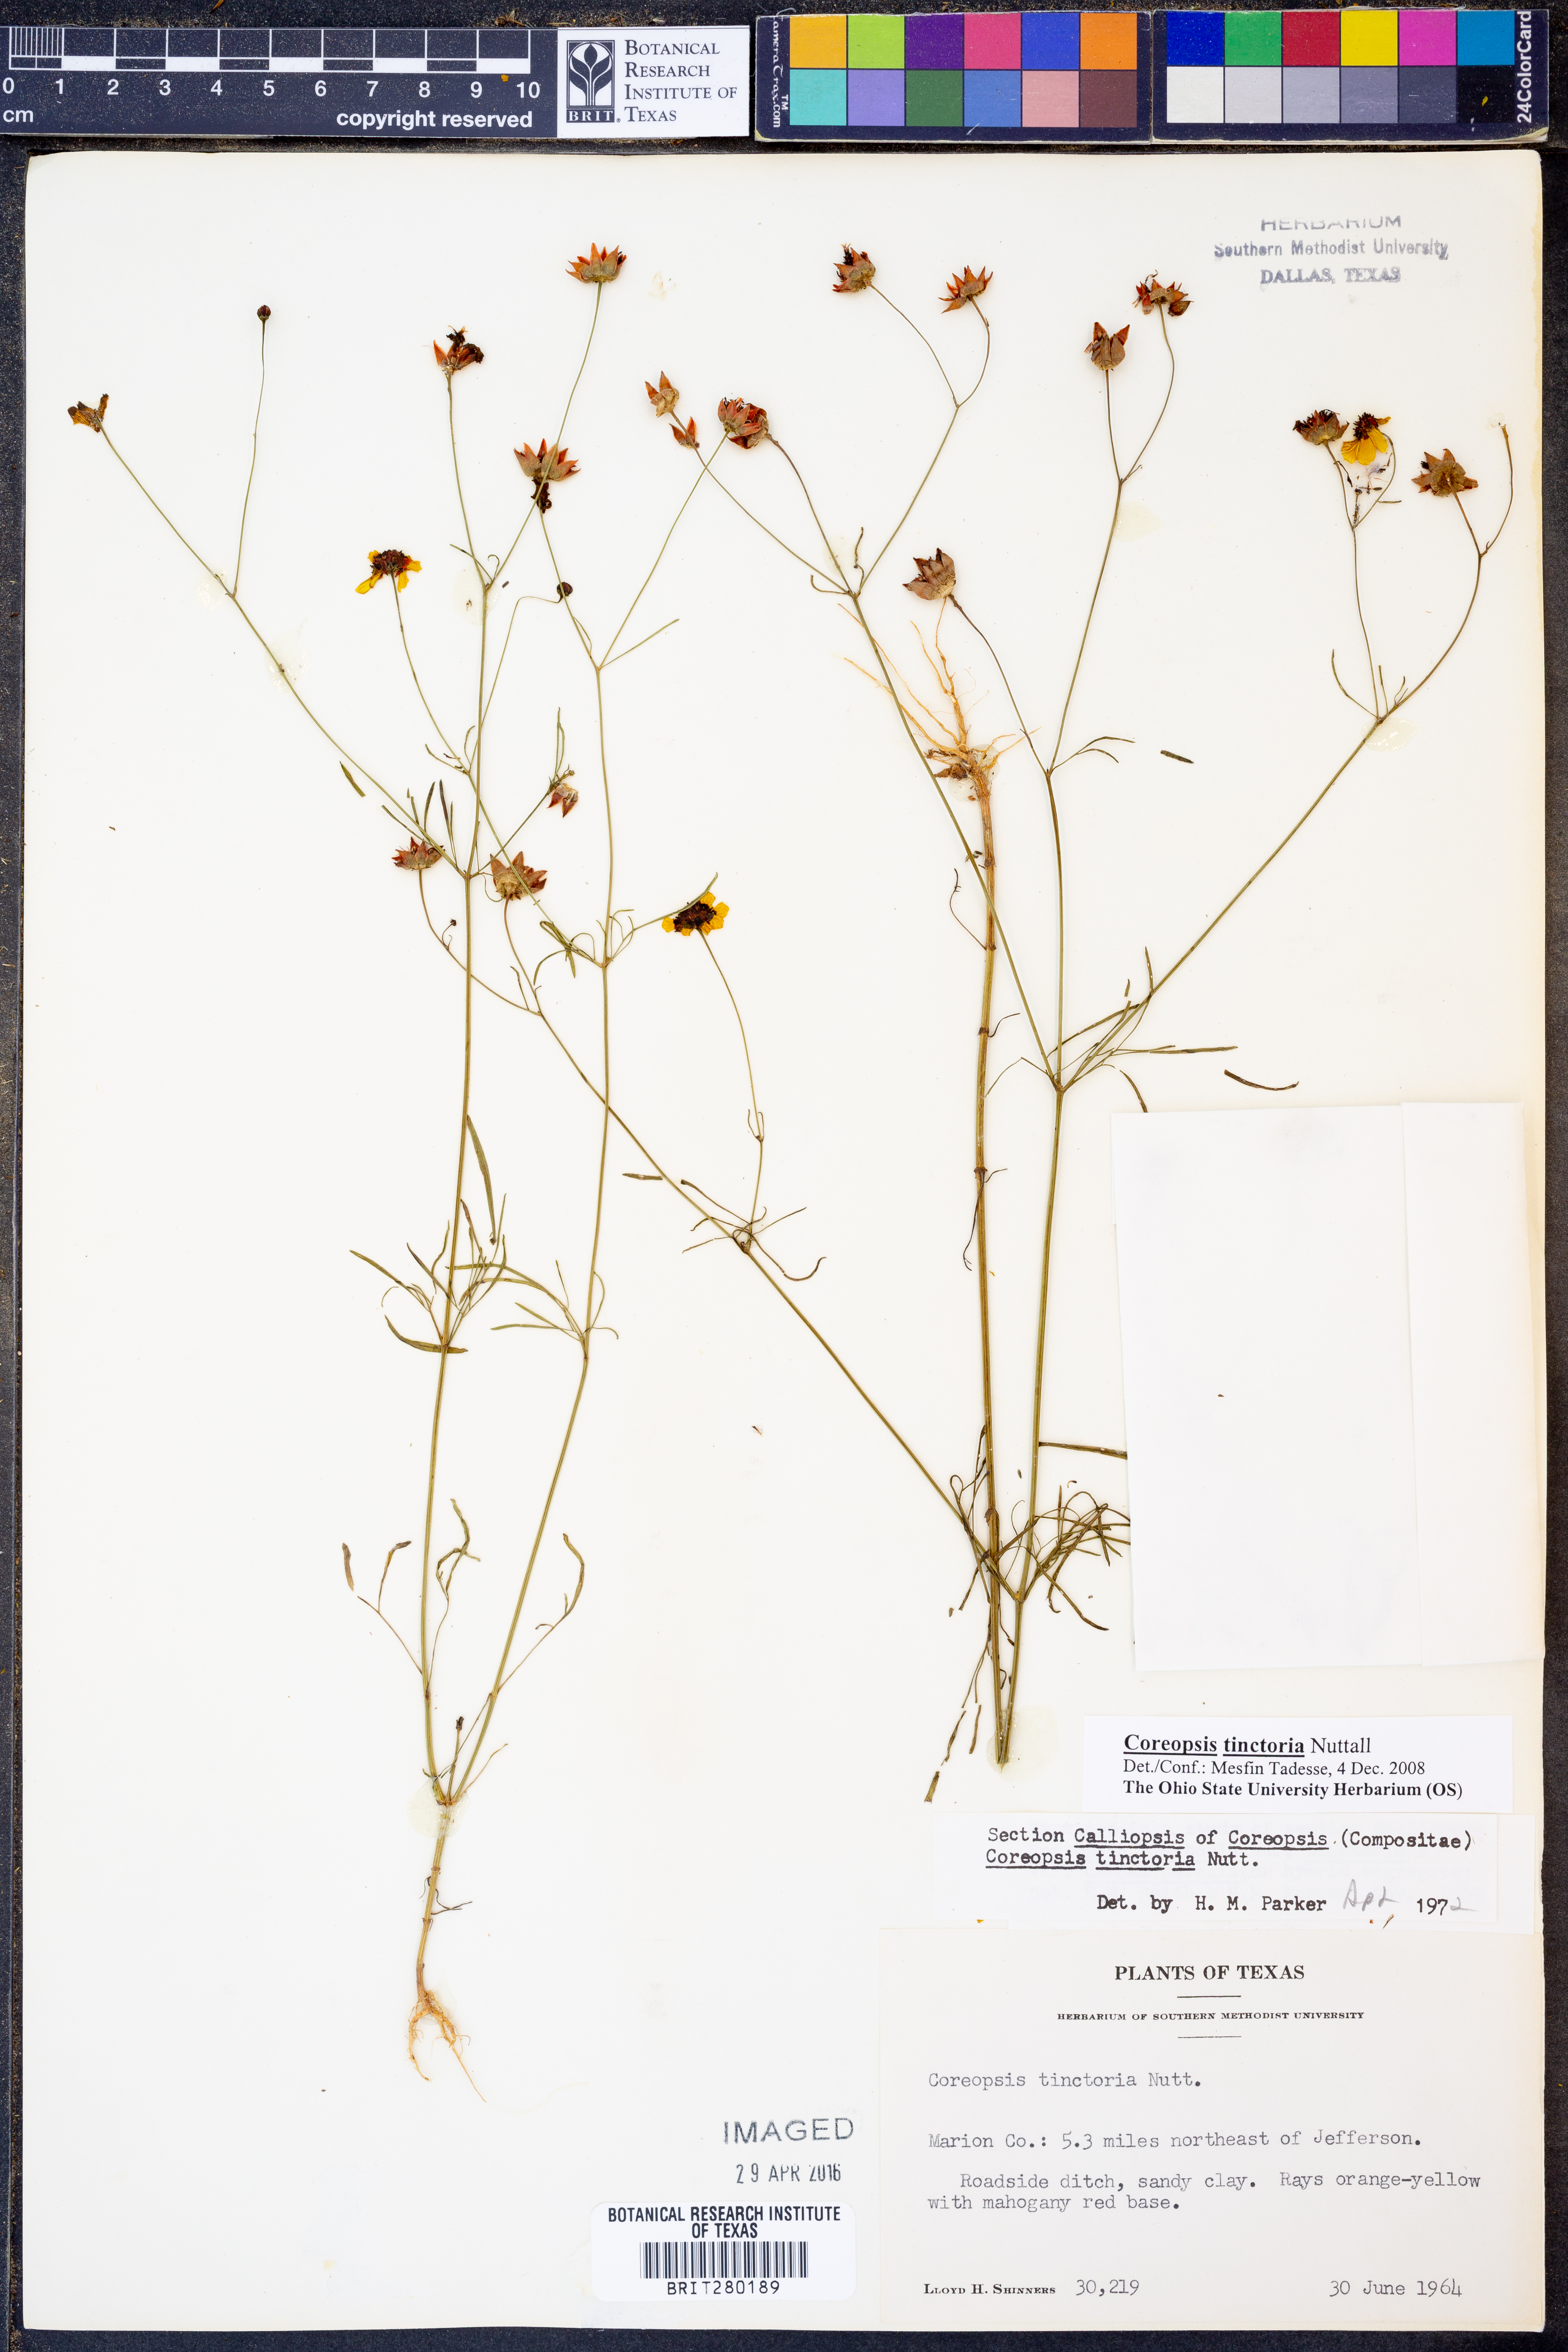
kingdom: Plantae
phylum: Tracheophyta
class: Magnoliopsida
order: Asterales
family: Asteraceae
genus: Coreopsis
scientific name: Coreopsis tinctoria
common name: Garden tickseed
